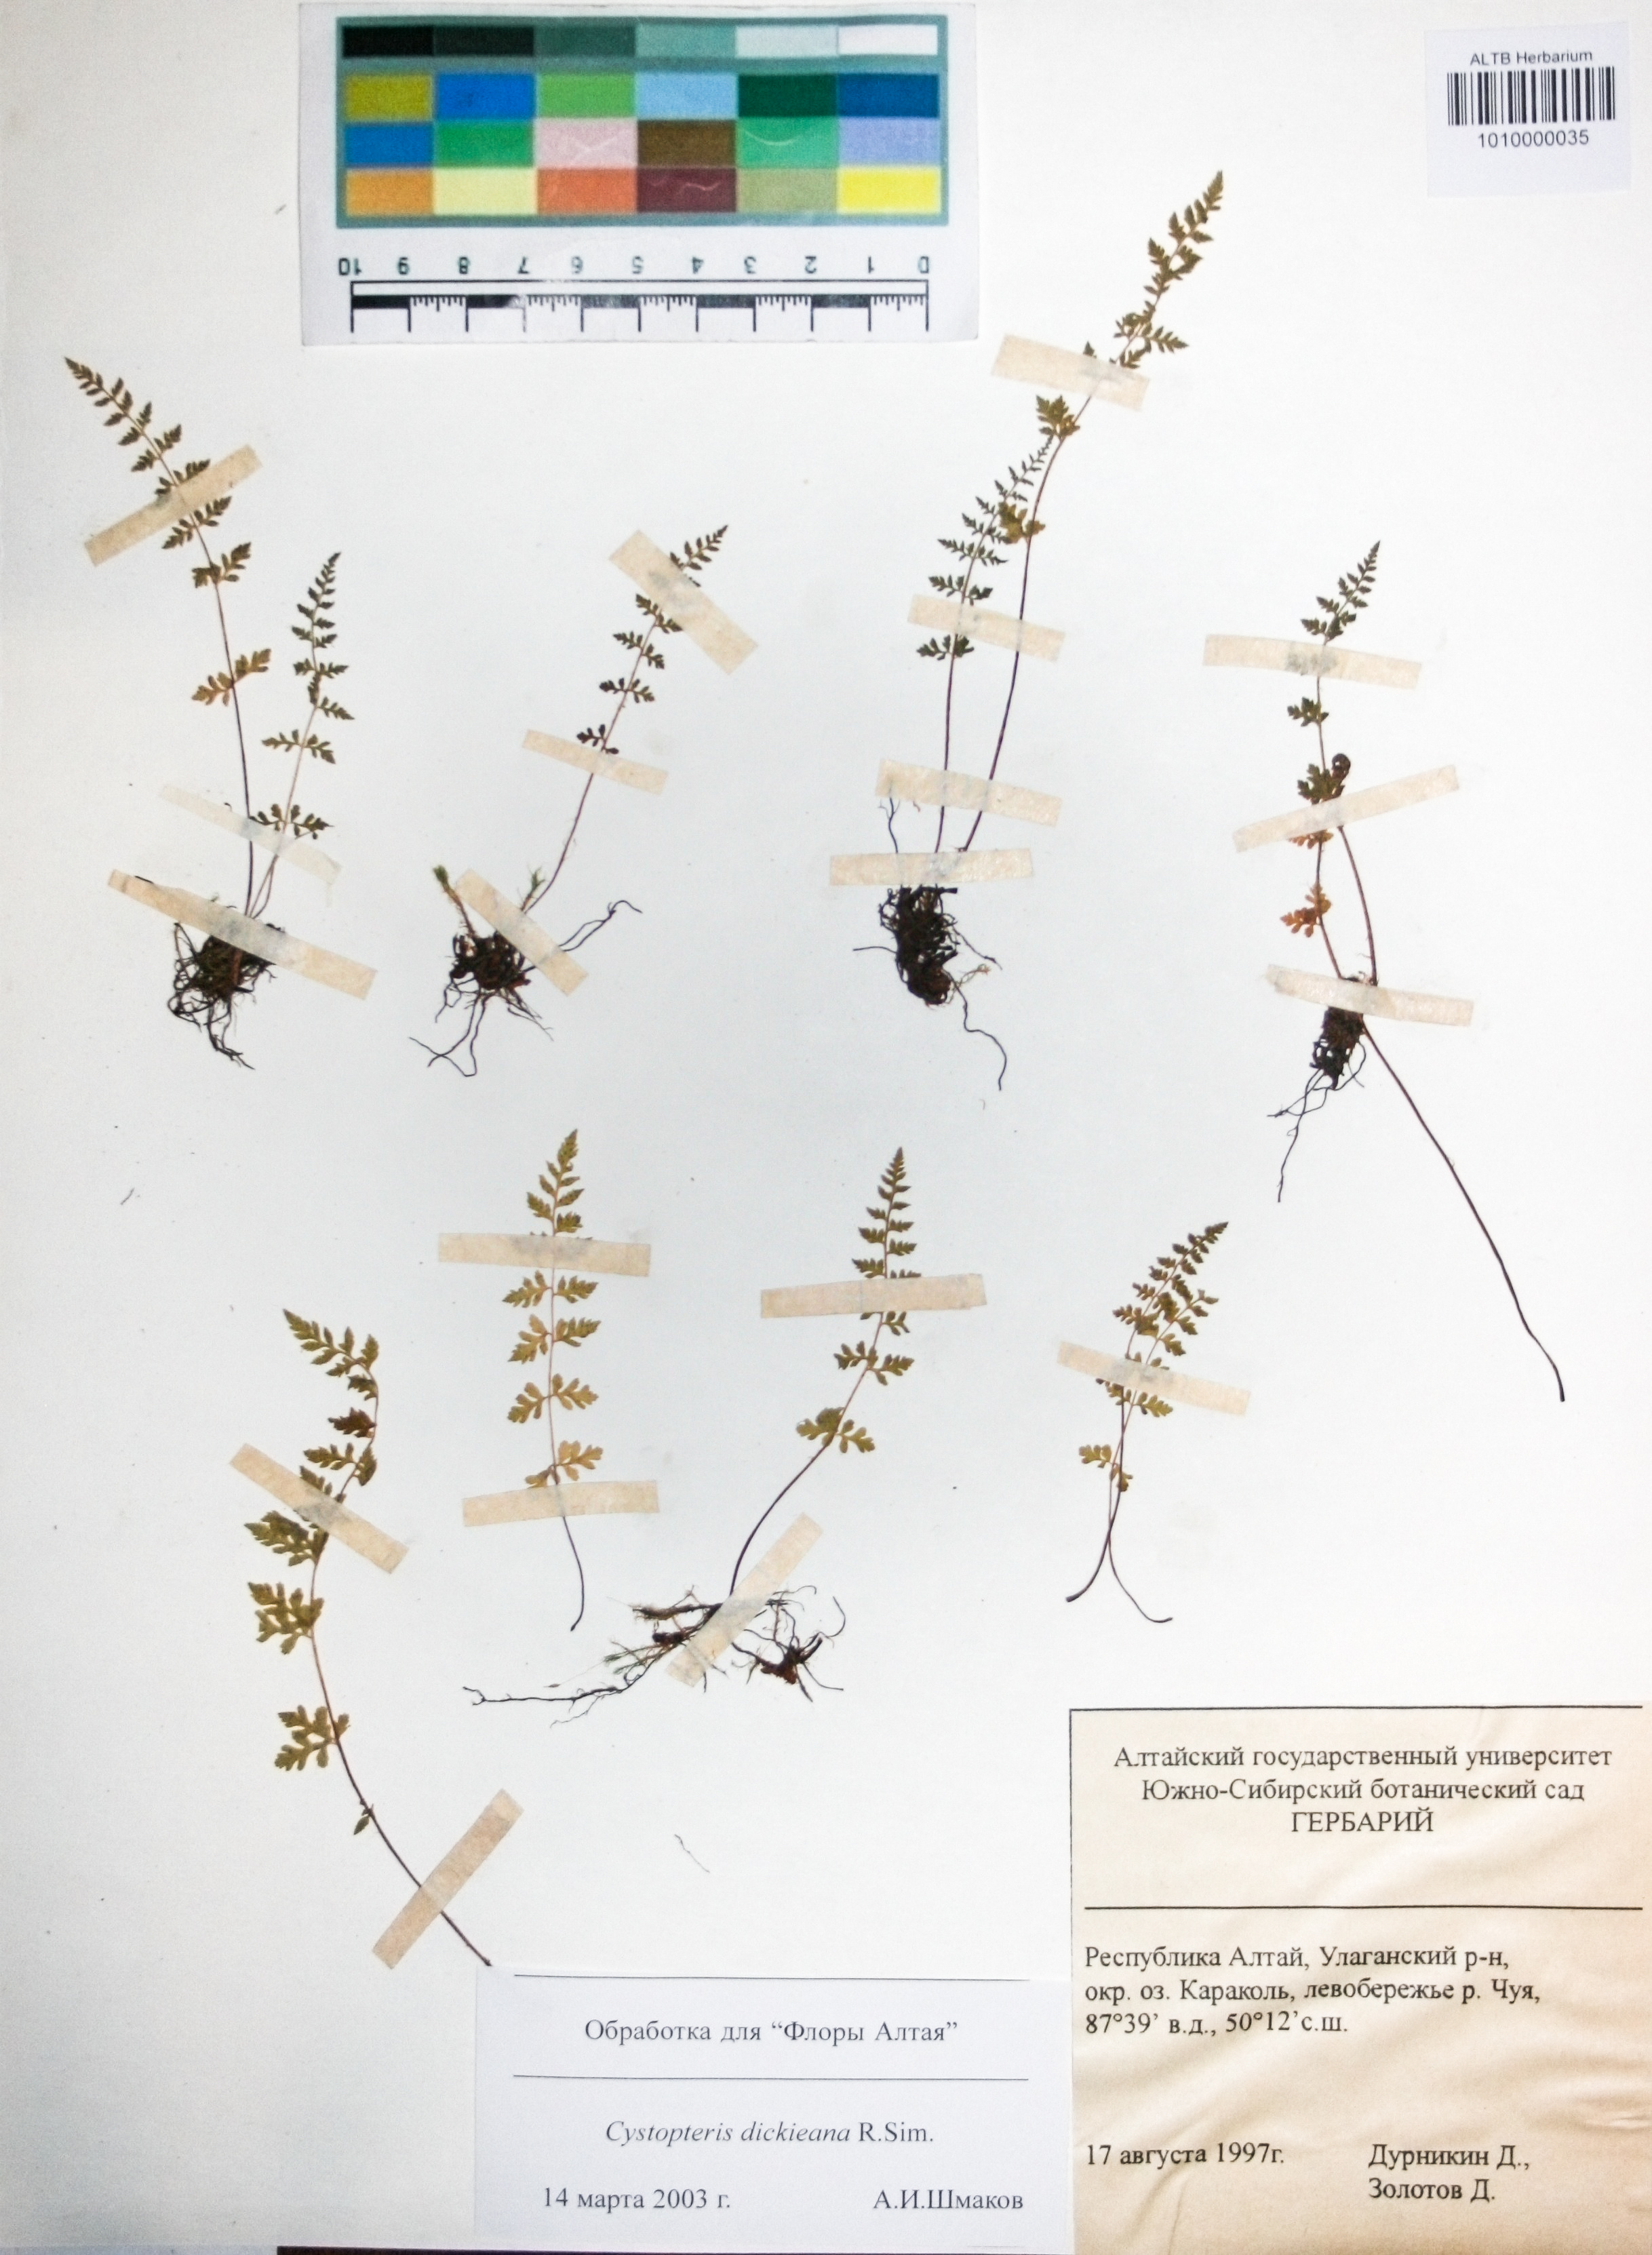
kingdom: Plantae
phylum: Tracheophyta
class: Polypodiopsida
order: Polypodiales
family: Cystopteridaceae
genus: Cystopteris
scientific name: Cystopteris dickieana
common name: Dickie's bladder-fern
